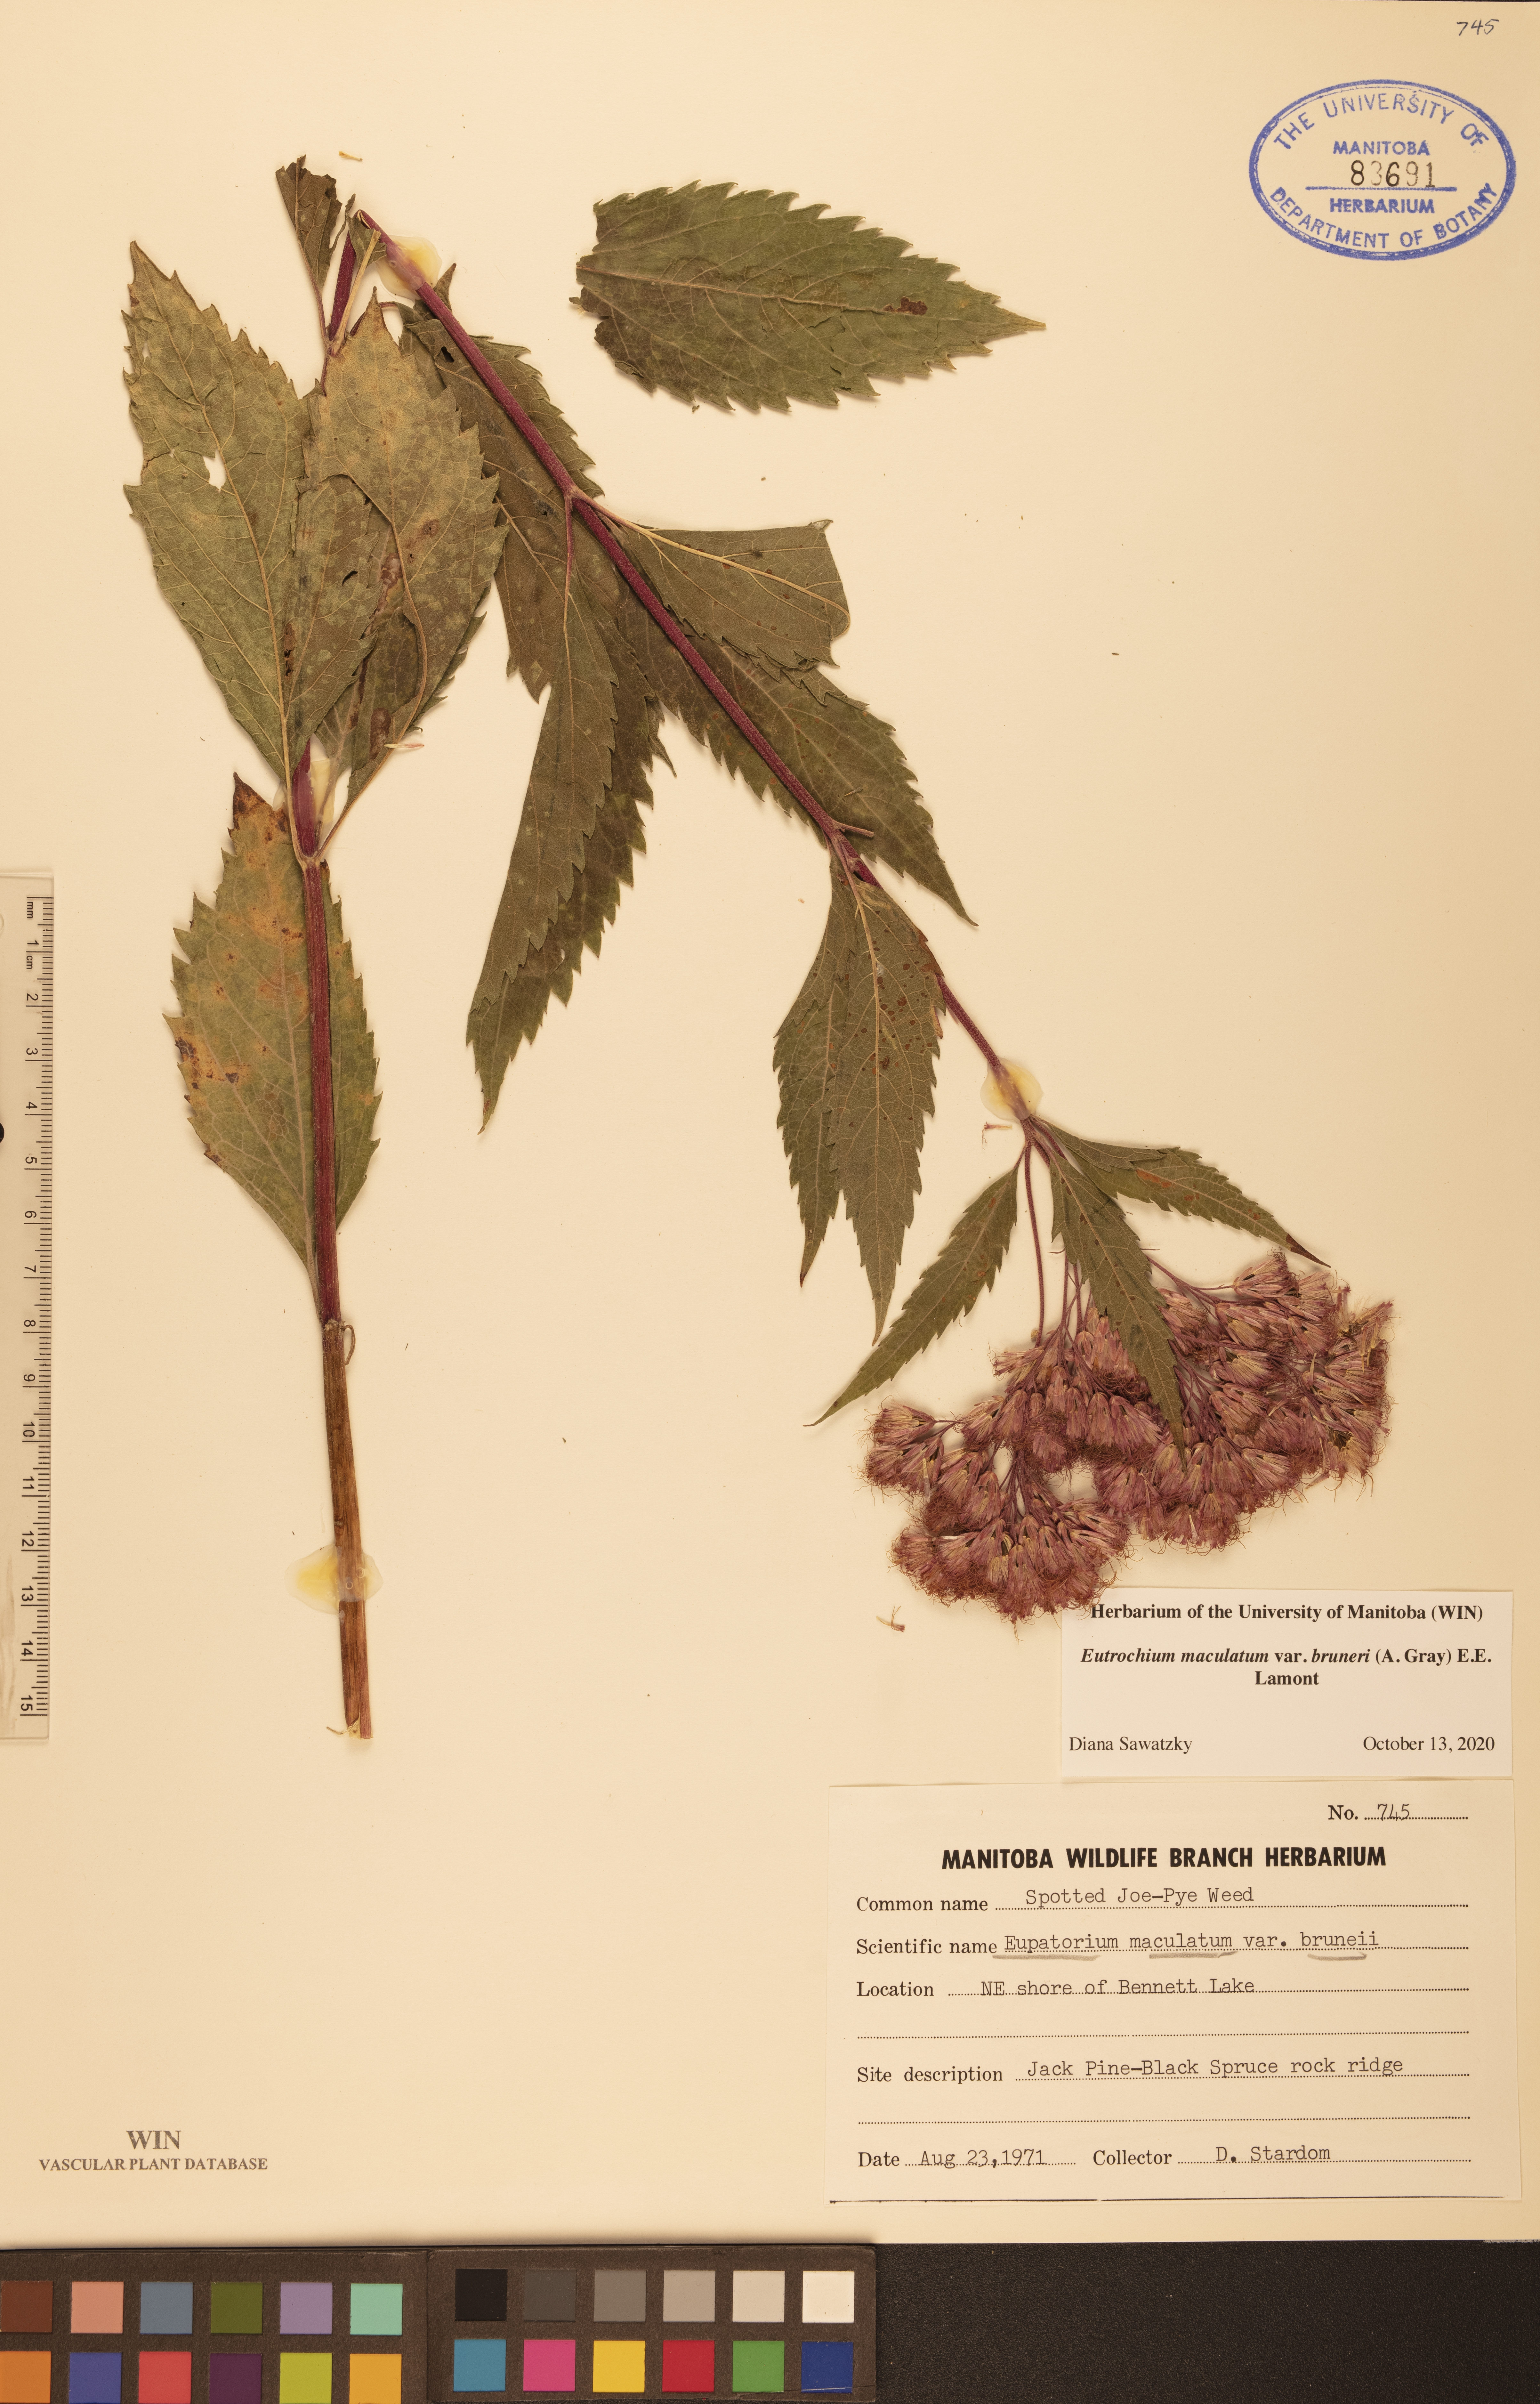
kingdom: Plantae
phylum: Tracheophyta
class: Magnoliopsida
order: Asterales
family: Asteraceae
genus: Eutrochium
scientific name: Eutrochium maculatum
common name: Spotted joe pye weed
